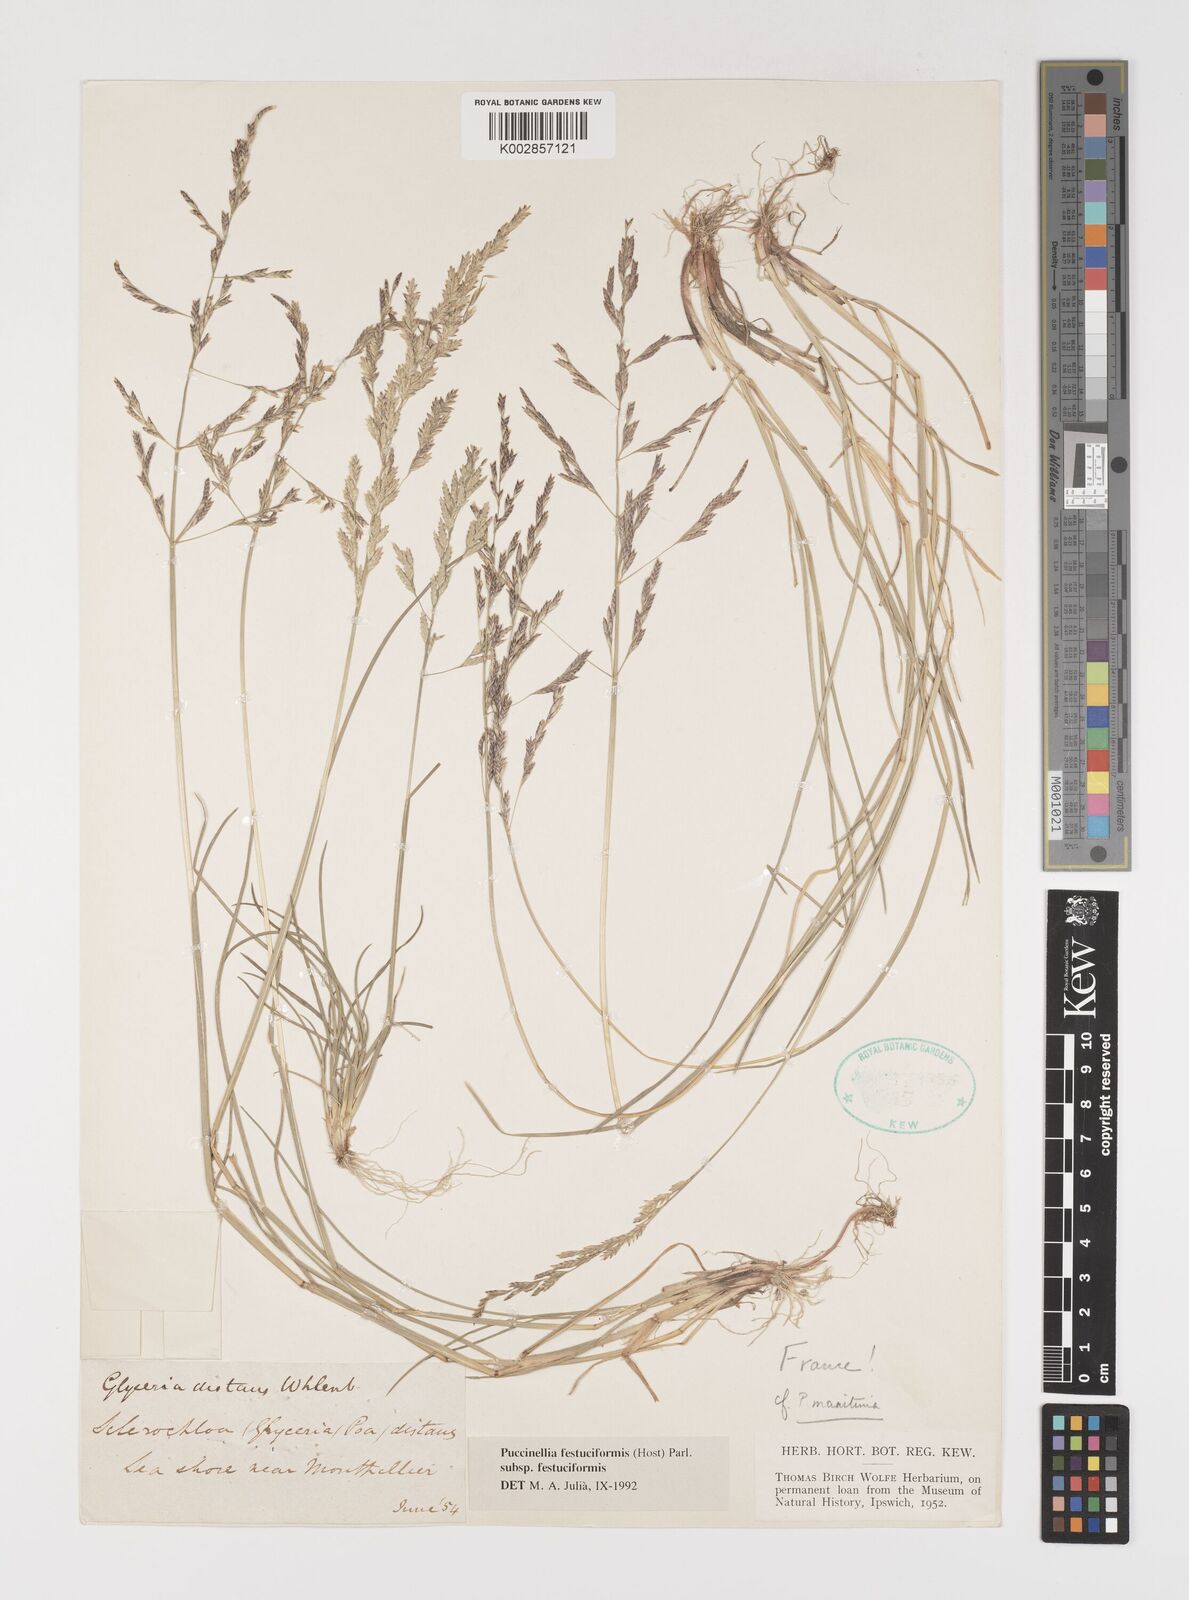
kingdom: Plantae
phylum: Tracheophyta
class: Liliopsida
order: Poales
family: Poaceae
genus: Puccinellia
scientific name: Puccinellia festuciformis
